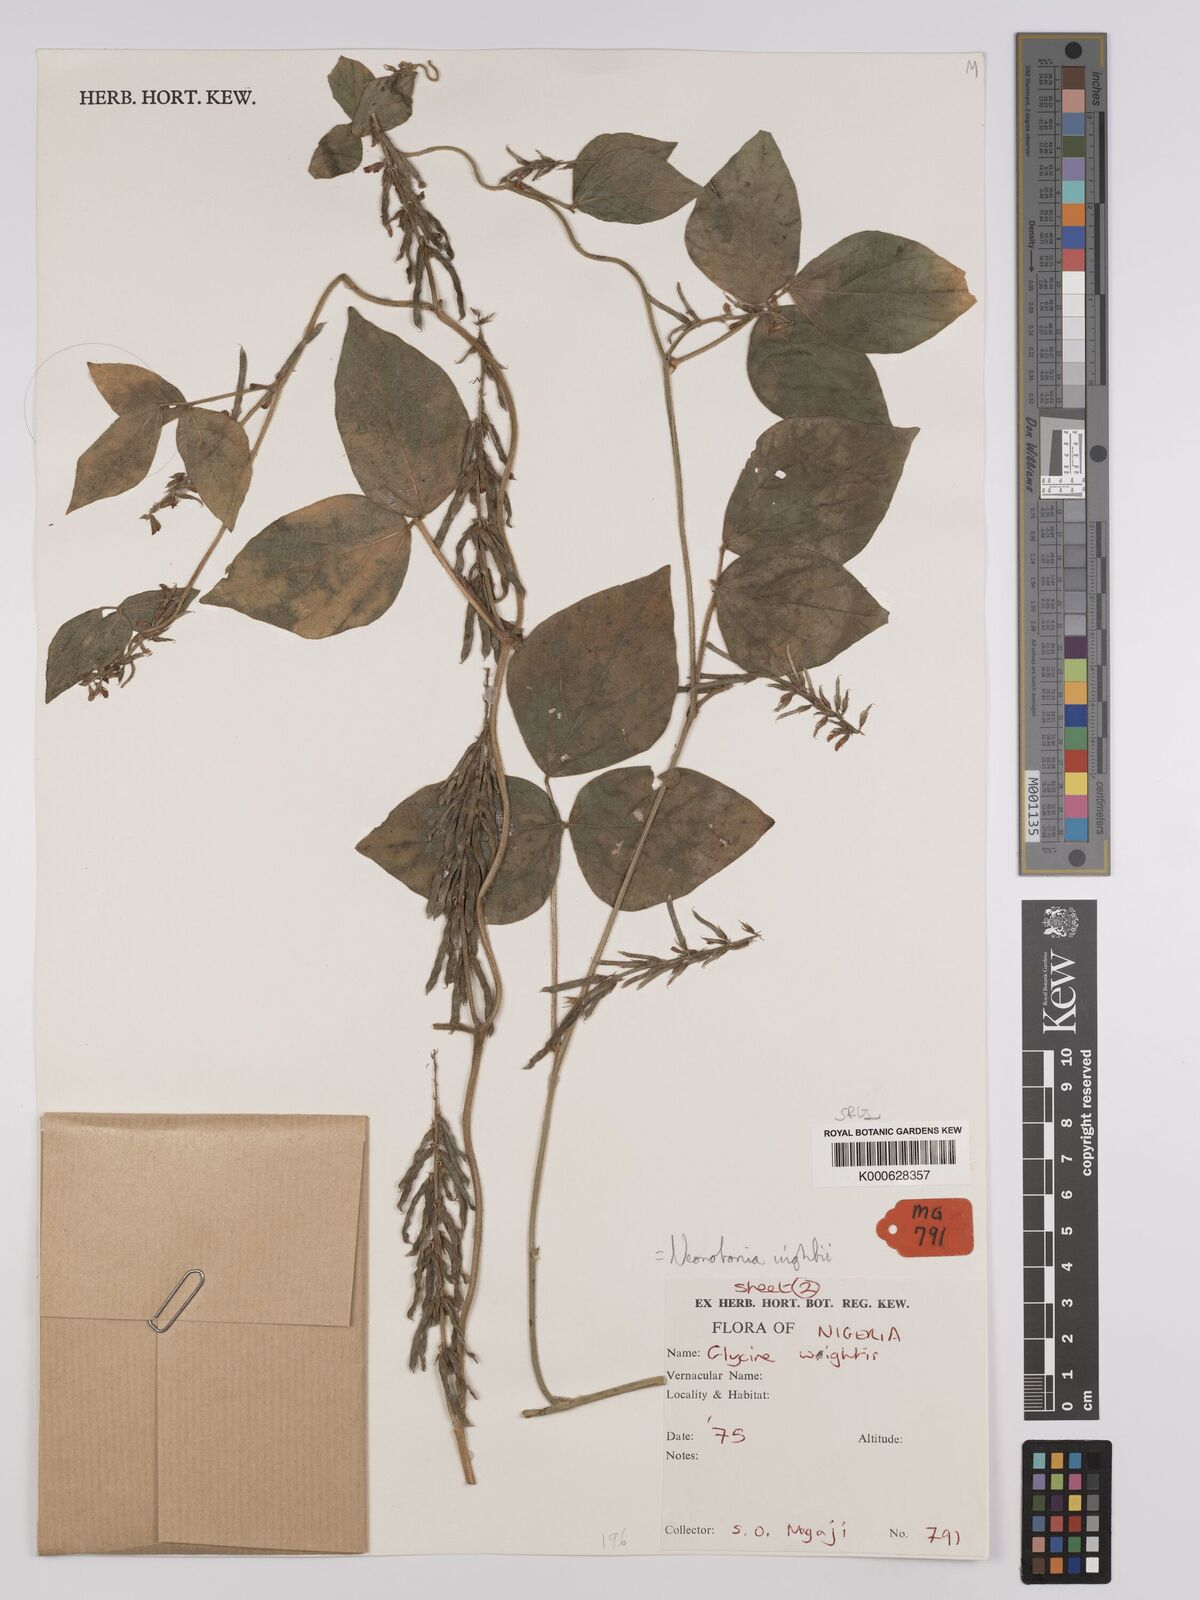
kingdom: Plantae
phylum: Tracheophyta
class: Magnoliopsida
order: Fabales
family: Fabaceae
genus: Neonotonia
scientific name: Neonotonia wightii
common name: Perennial soybean
